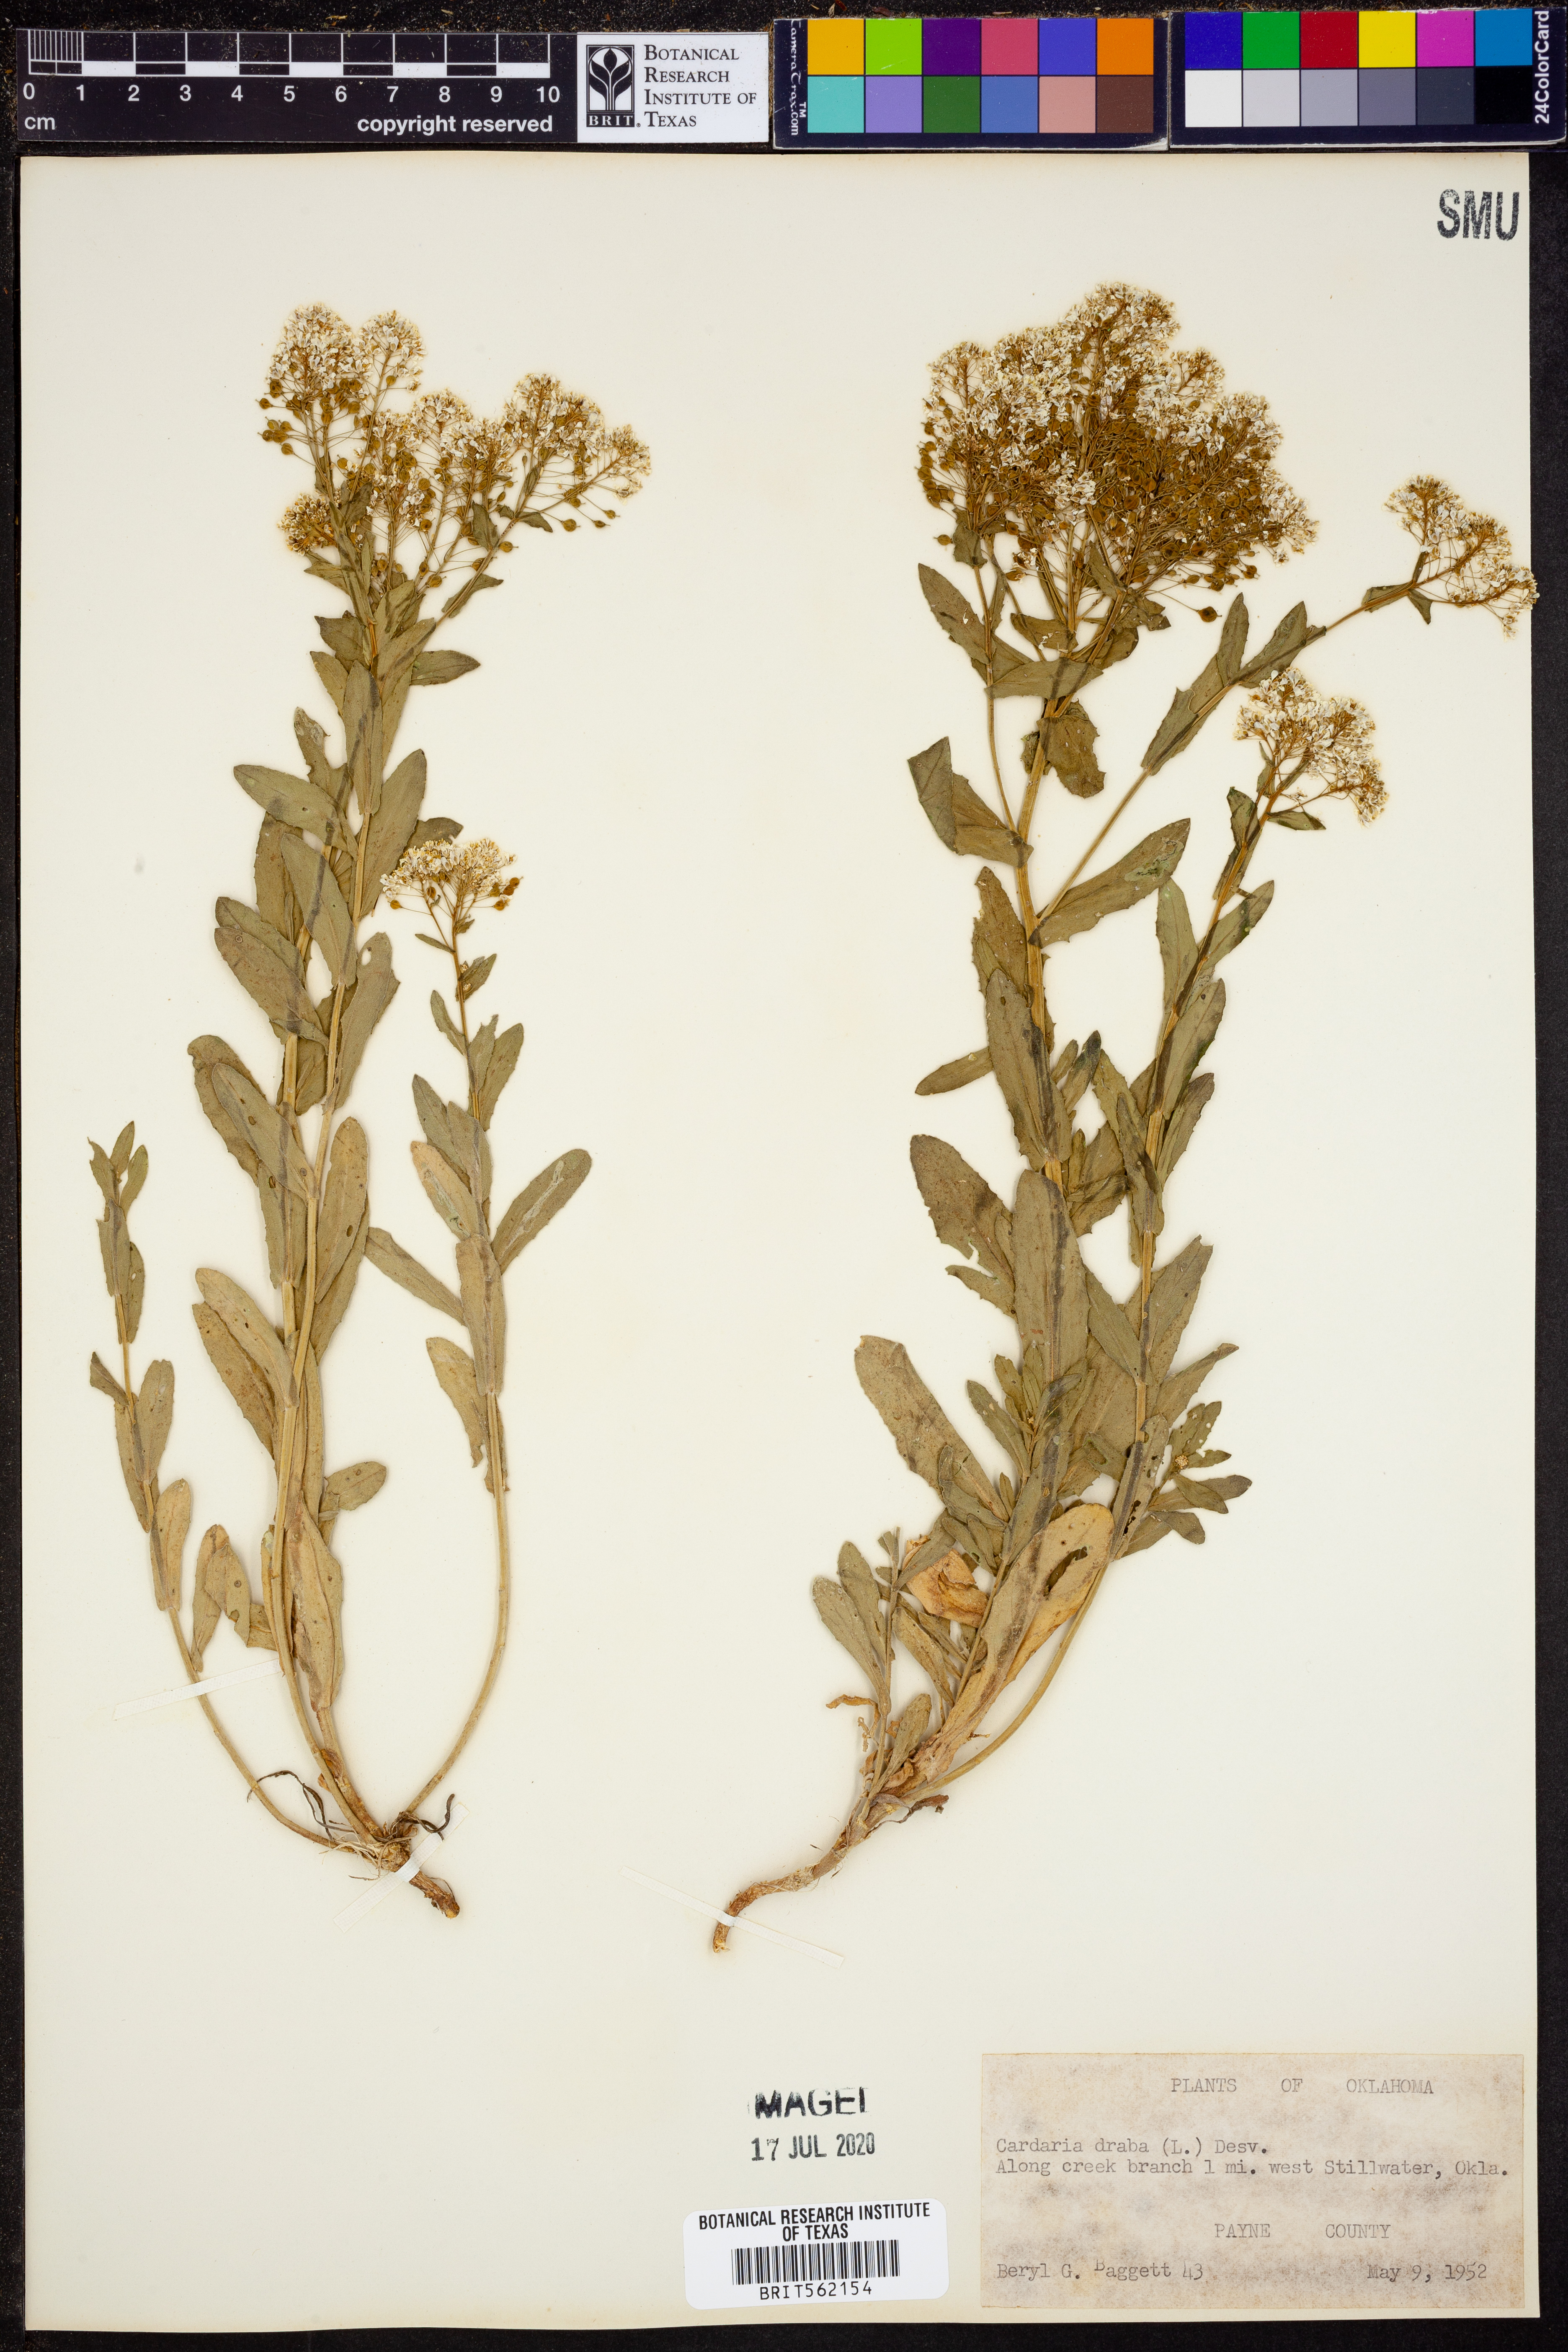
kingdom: Plantae
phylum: Tracheophyta
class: Magnoliopsida
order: Brassicales
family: Brassicaceae
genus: Lepidium
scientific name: Lepidium draba
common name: Hoary cress
